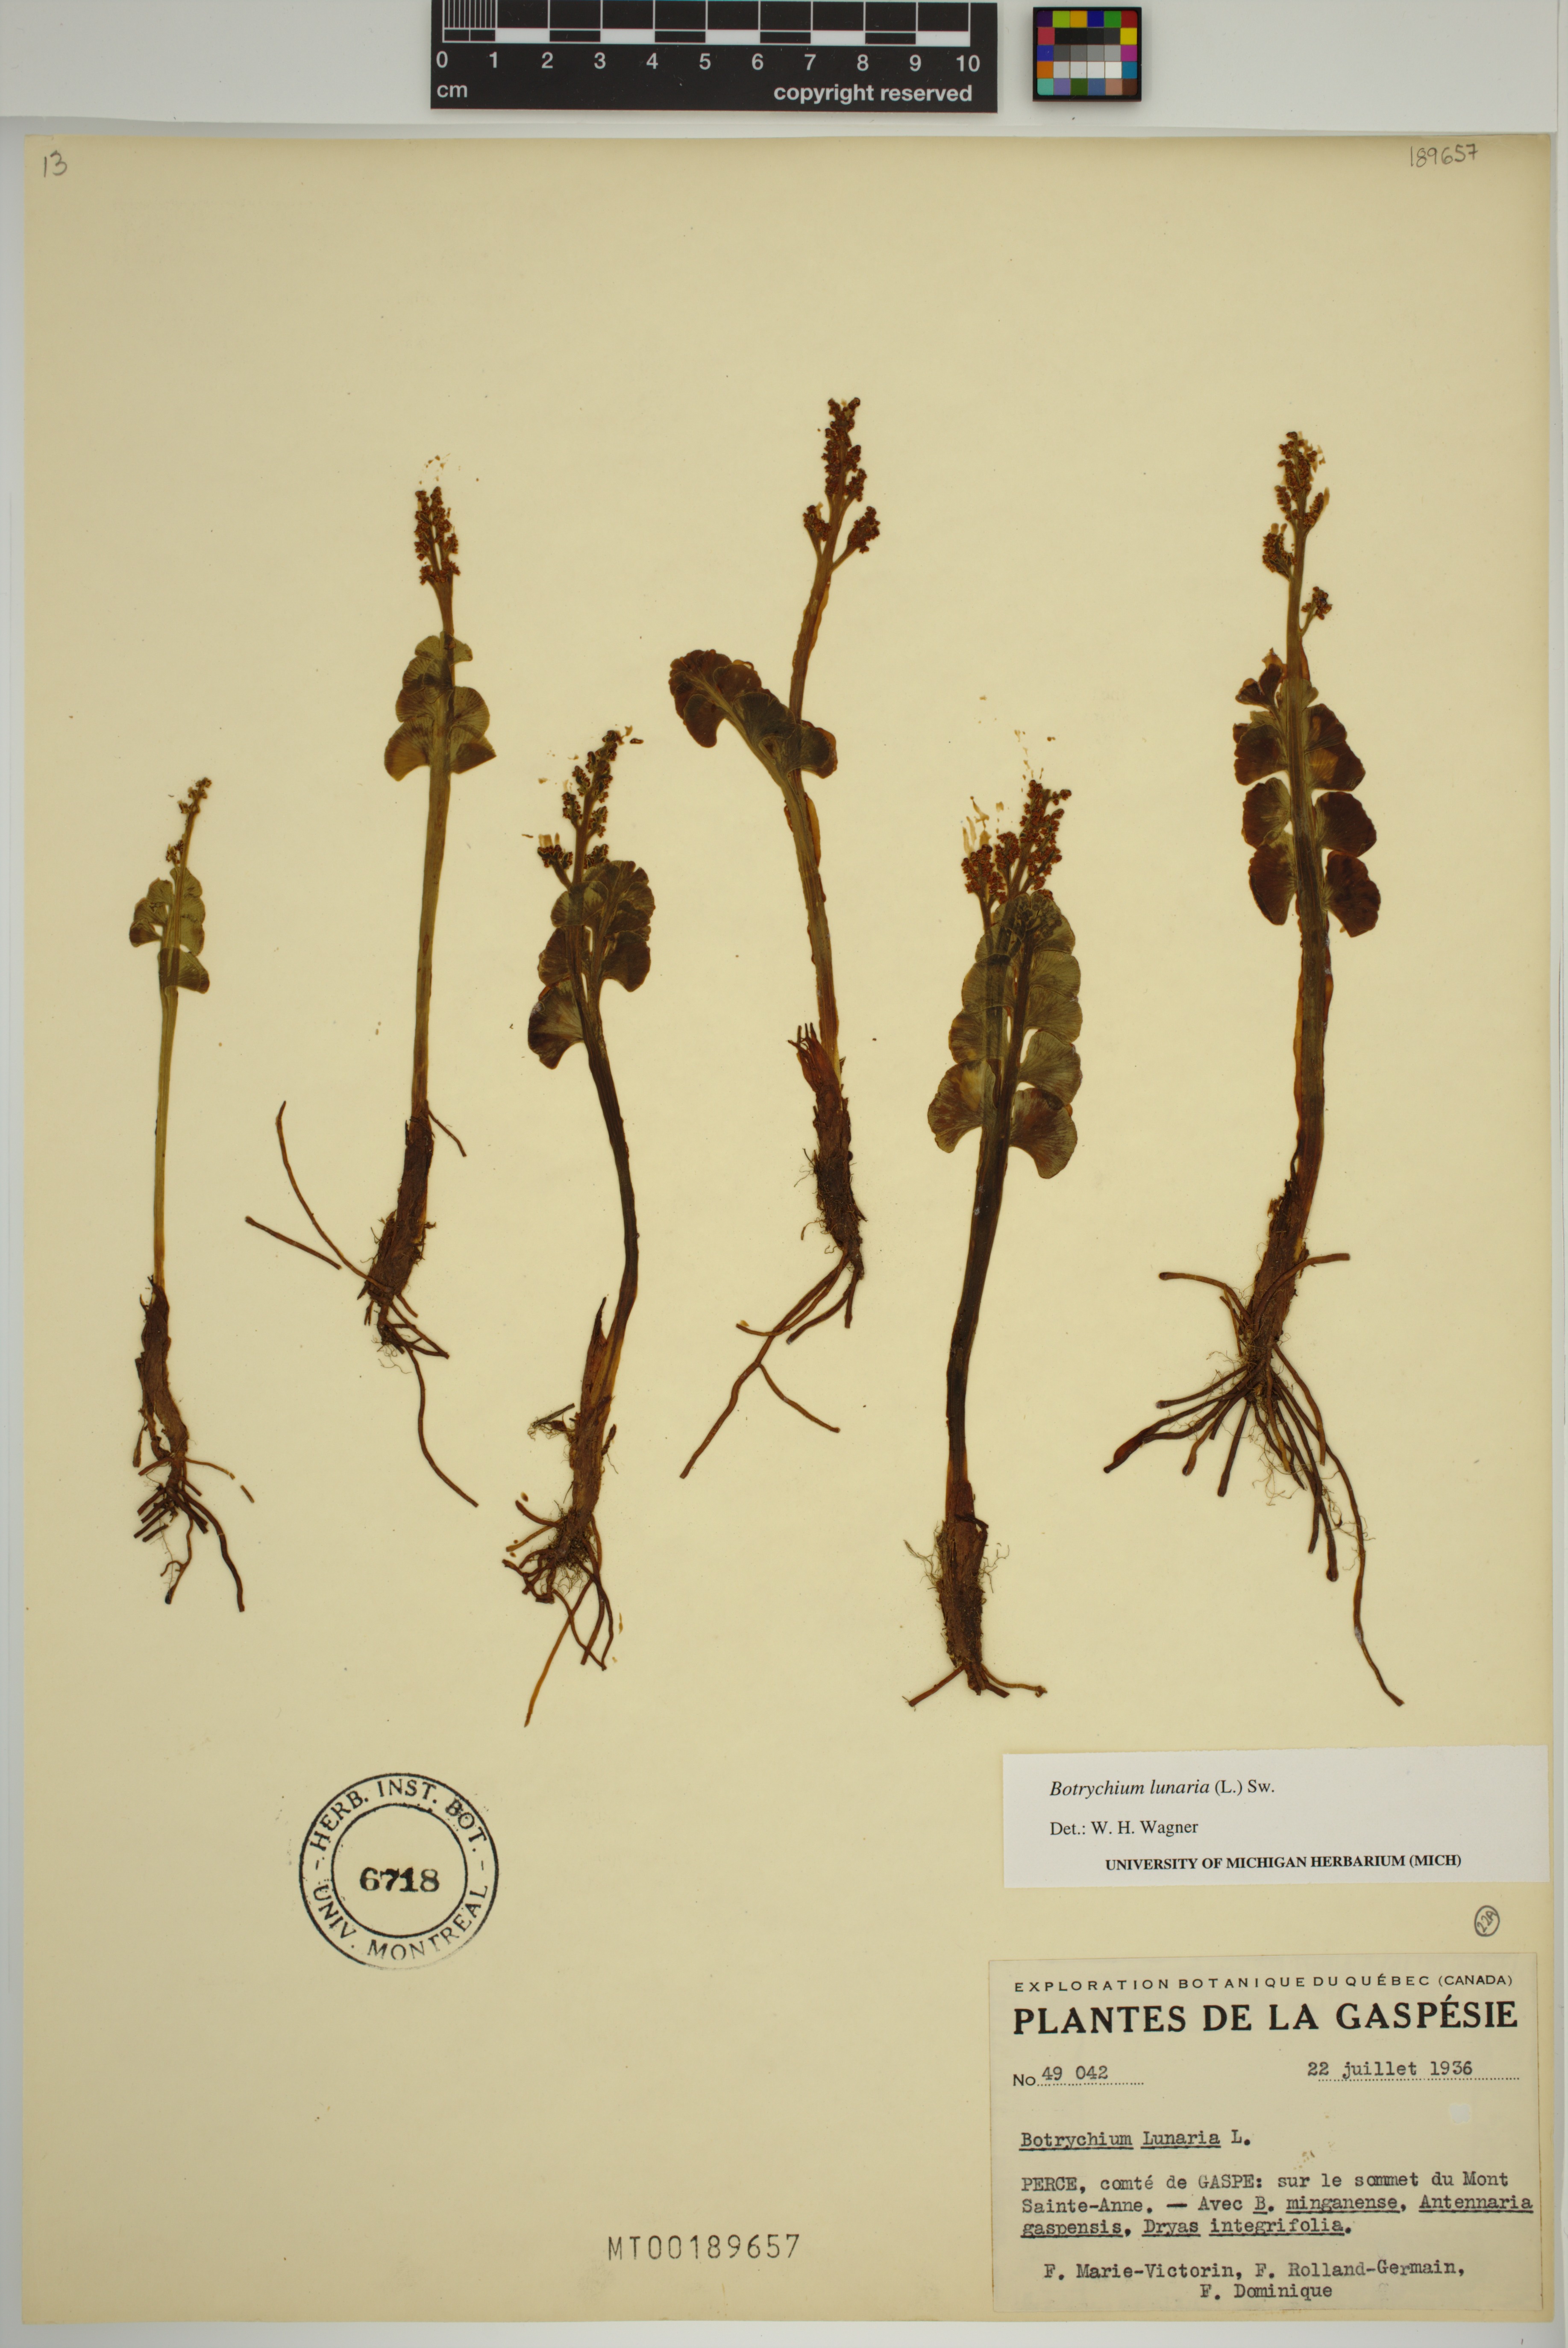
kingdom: Plantae
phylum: Tracheophyta
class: Polypodiopsida
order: Ophioglossales
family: Ophioglossaceae
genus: Botrychium
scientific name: Botrychium lunaria
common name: Moonwort
